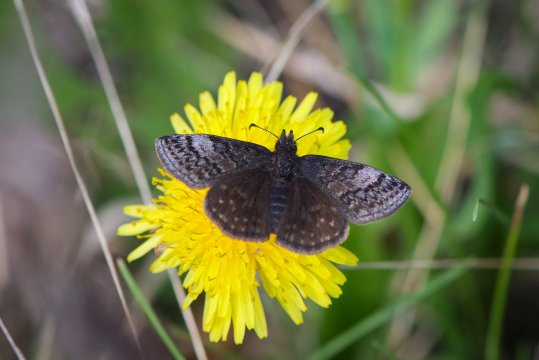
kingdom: Animalia
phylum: Arthropoda
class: Insecta
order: Lepidoptera
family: Hesperiidae
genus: Erynnis
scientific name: Erynnis icelus
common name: Dreamy Duskywing
